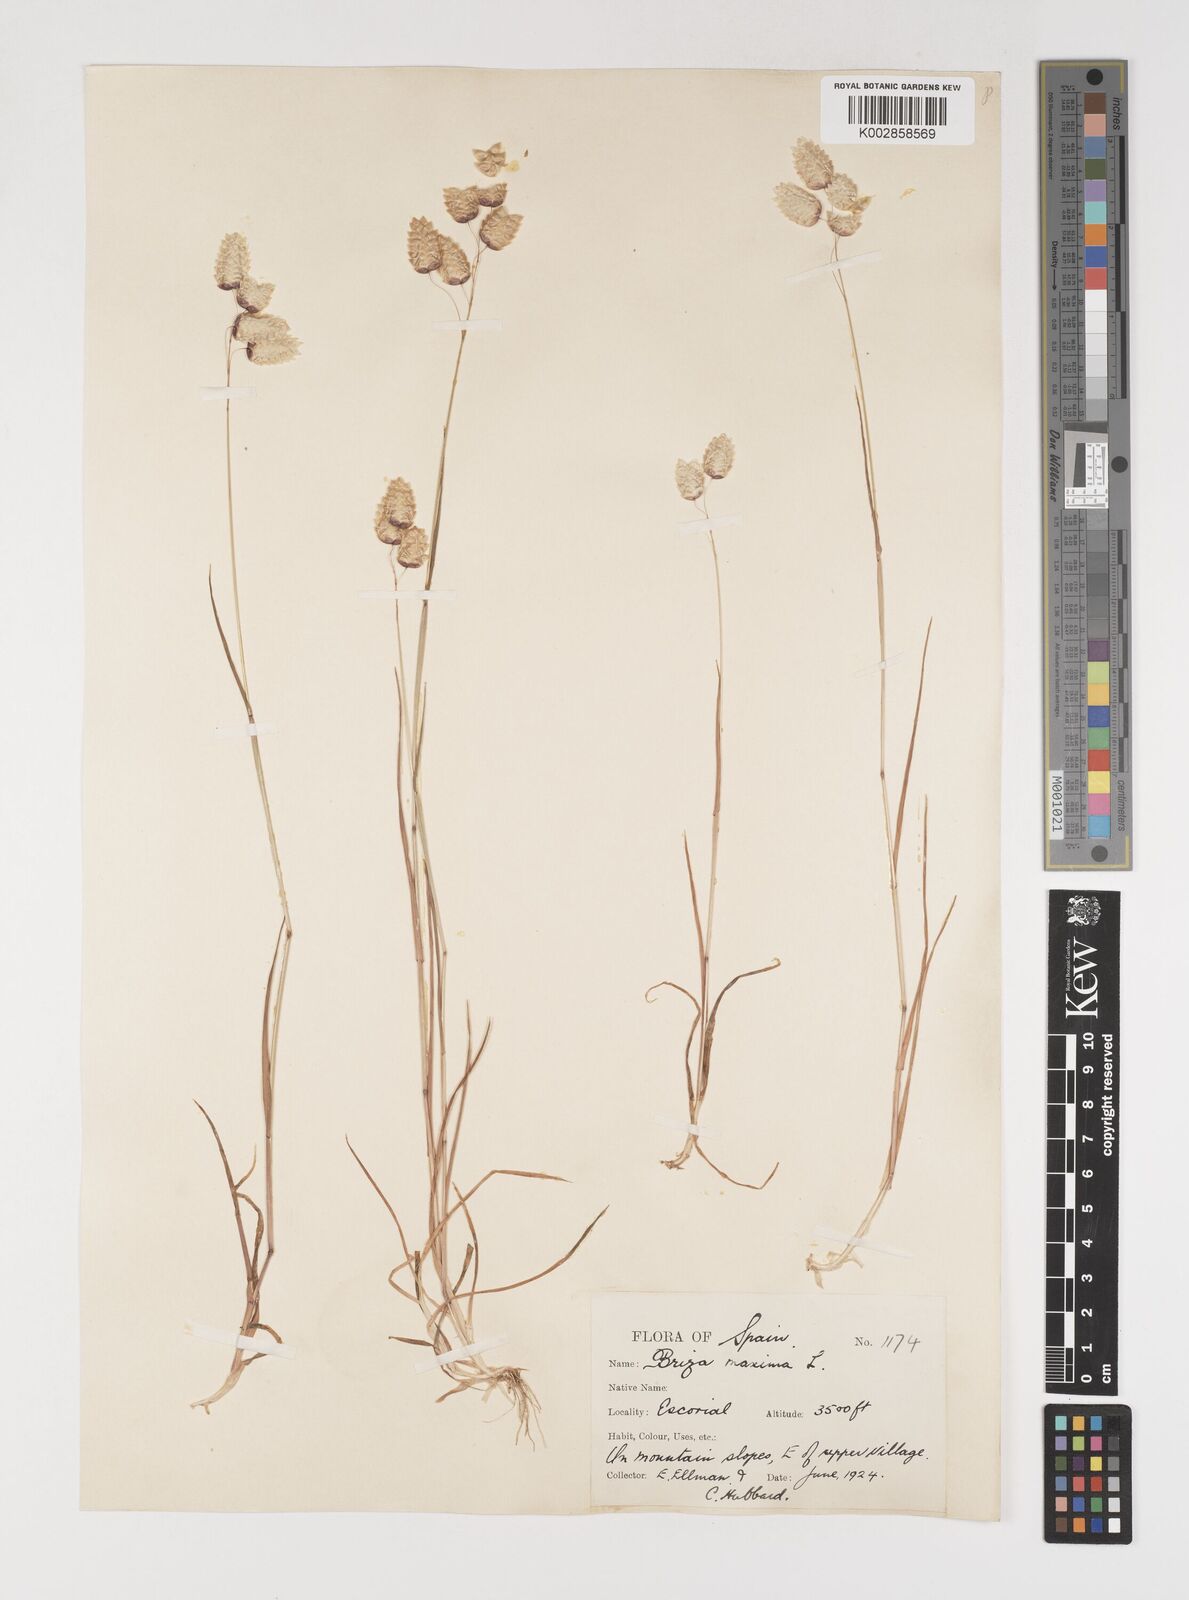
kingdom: Plantae
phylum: Tracheophyta
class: Liliopsida
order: Poales
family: Poaceae
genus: Briza
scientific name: Briza maxima
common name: Big quakinggrass
